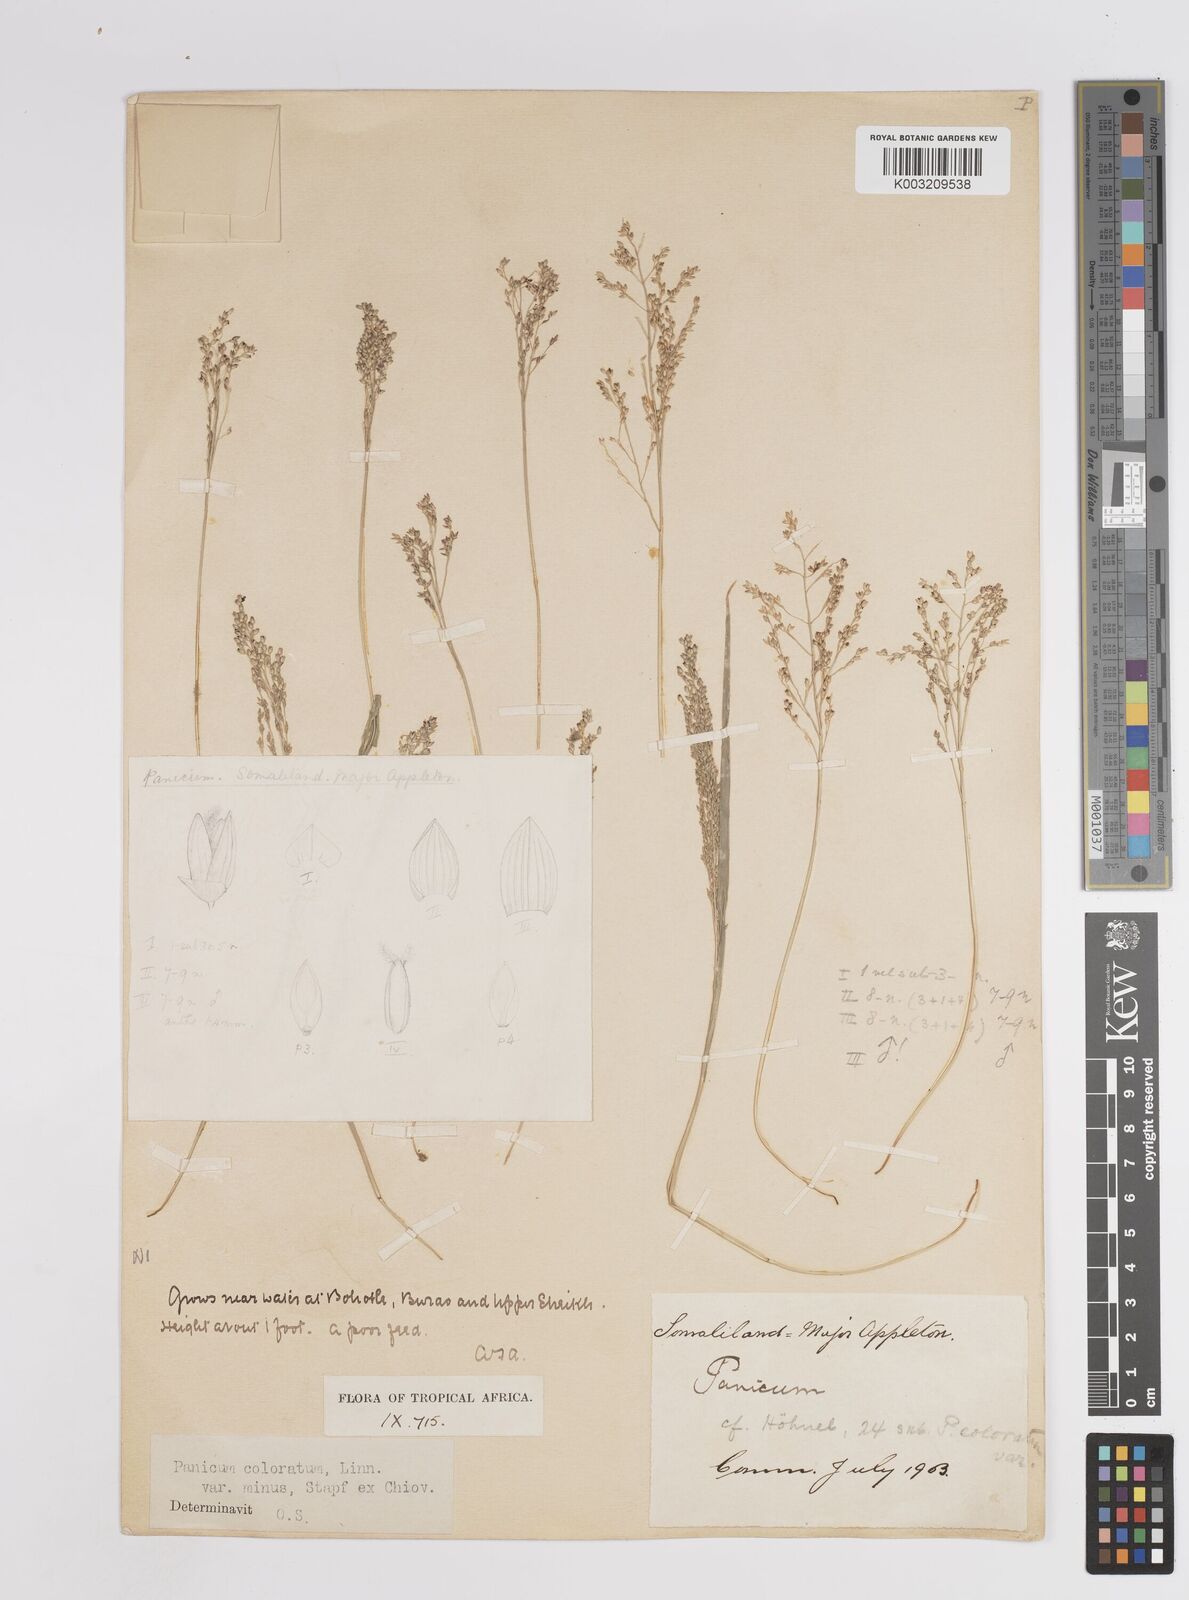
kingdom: Plantae
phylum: Tracheophyta
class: Liliopsida
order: Poales
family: Poaceae
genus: Panicum
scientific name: Panicum coloratum
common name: Kleingrass
